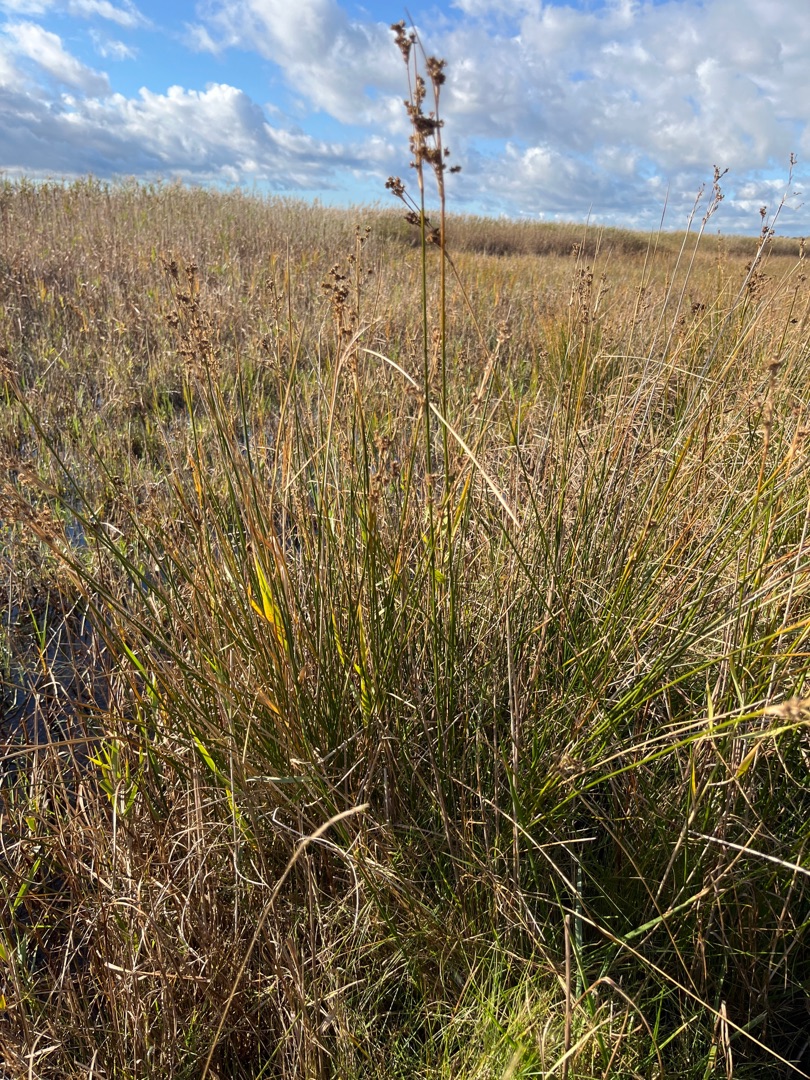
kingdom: Plantae
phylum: Tracheophyta
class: Liliopsida
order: Poales
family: Juncaceae
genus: Juncus
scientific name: Juncus maritimus
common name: Strand-siv
